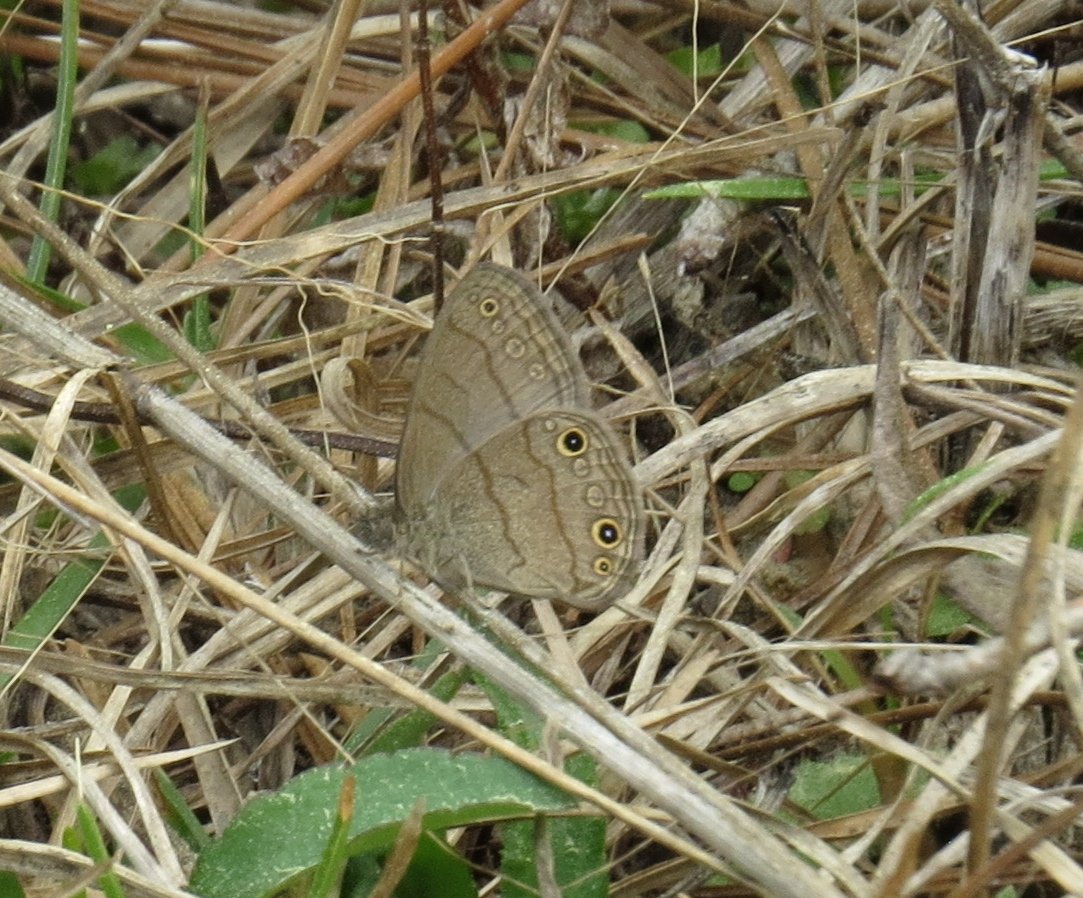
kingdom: Animalia
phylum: Arthropoda
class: Insecta
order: Lepidoptera
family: Nymphalidae
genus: Hermeuptychia
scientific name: Hermeuptychia hermes
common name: Carolina Satyr
